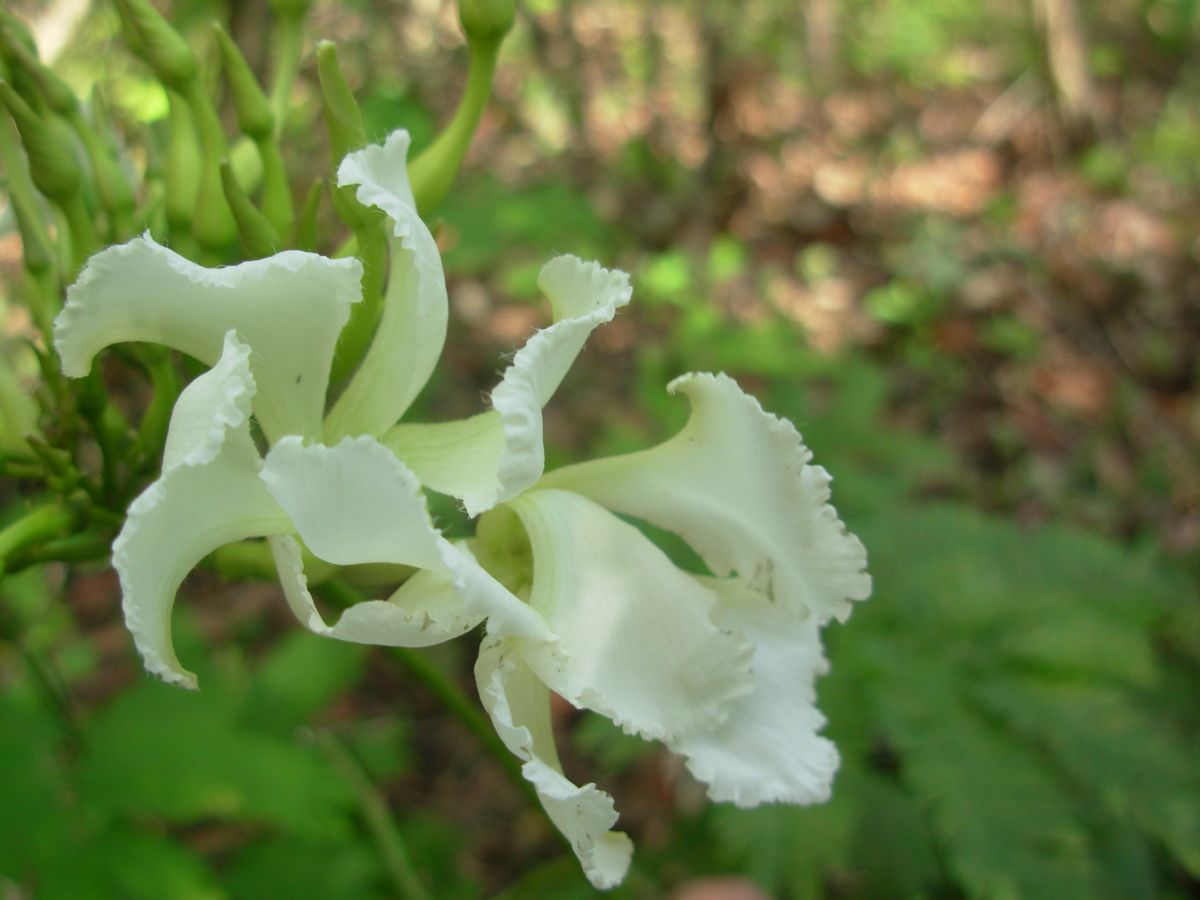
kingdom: Plantae
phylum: Tracheophyta
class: Magnoliopsida
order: Gentianales
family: Apocynaceae
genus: Echites
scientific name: Echites yucatanensis
